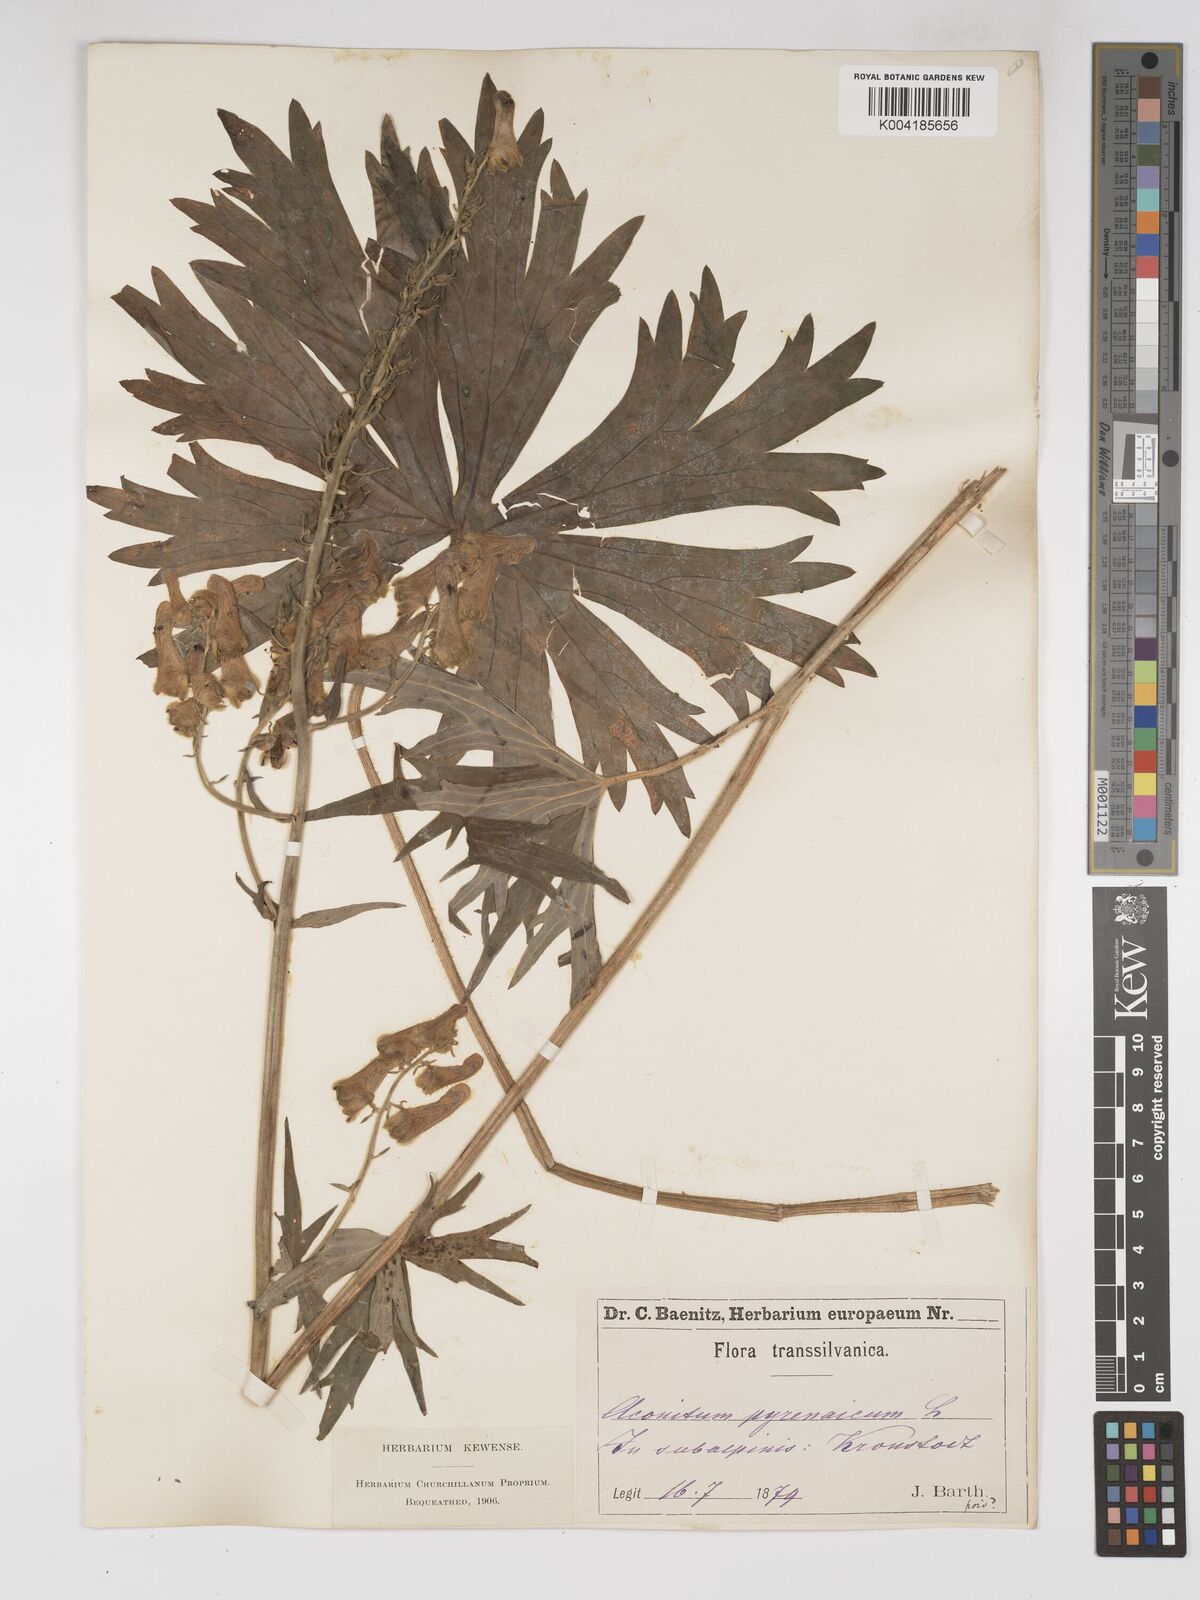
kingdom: Plantae
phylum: Tracheophyta
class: Magnoliopsida
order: Ranunculales
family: Ranunculaceae
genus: Aconitum
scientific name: Aconitum lycoctonum
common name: Wolf's-bane
